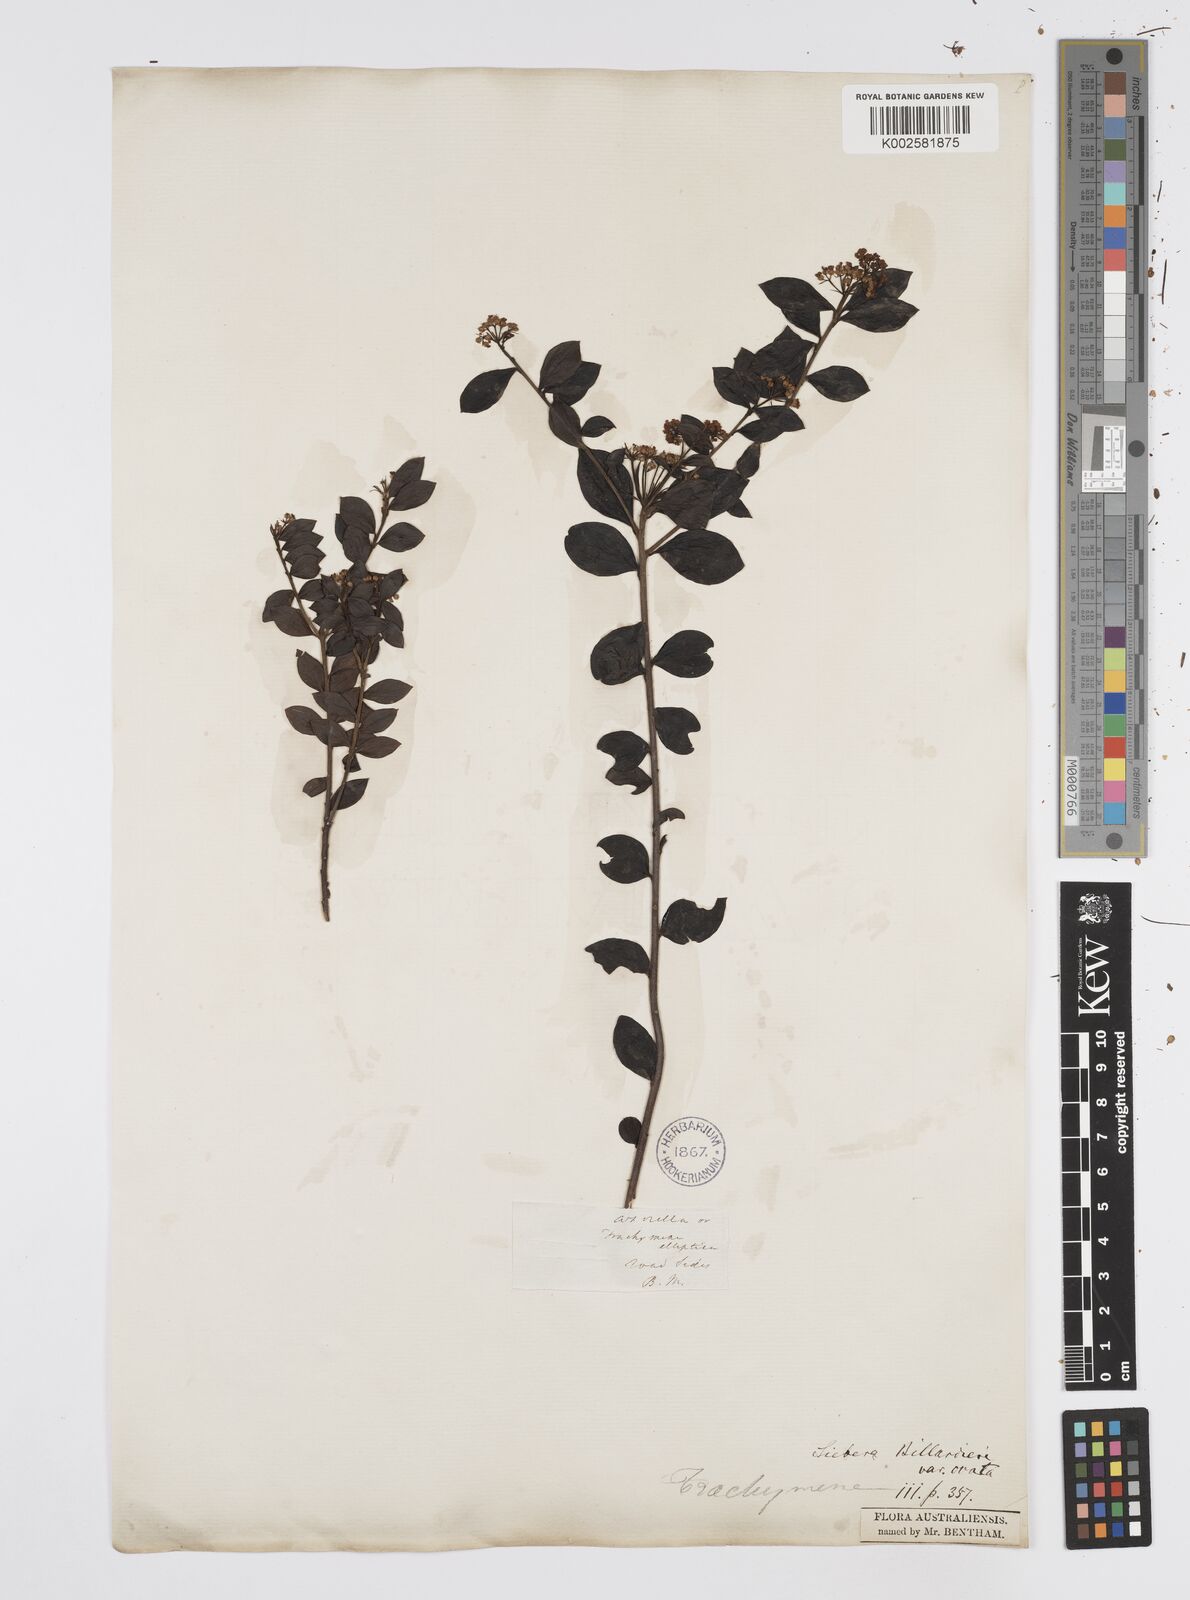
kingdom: Plantae
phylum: Tracheophyta
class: Magnoliopsida
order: Apiales
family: Apiaceae
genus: Platysace
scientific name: Platysace lanceolata
